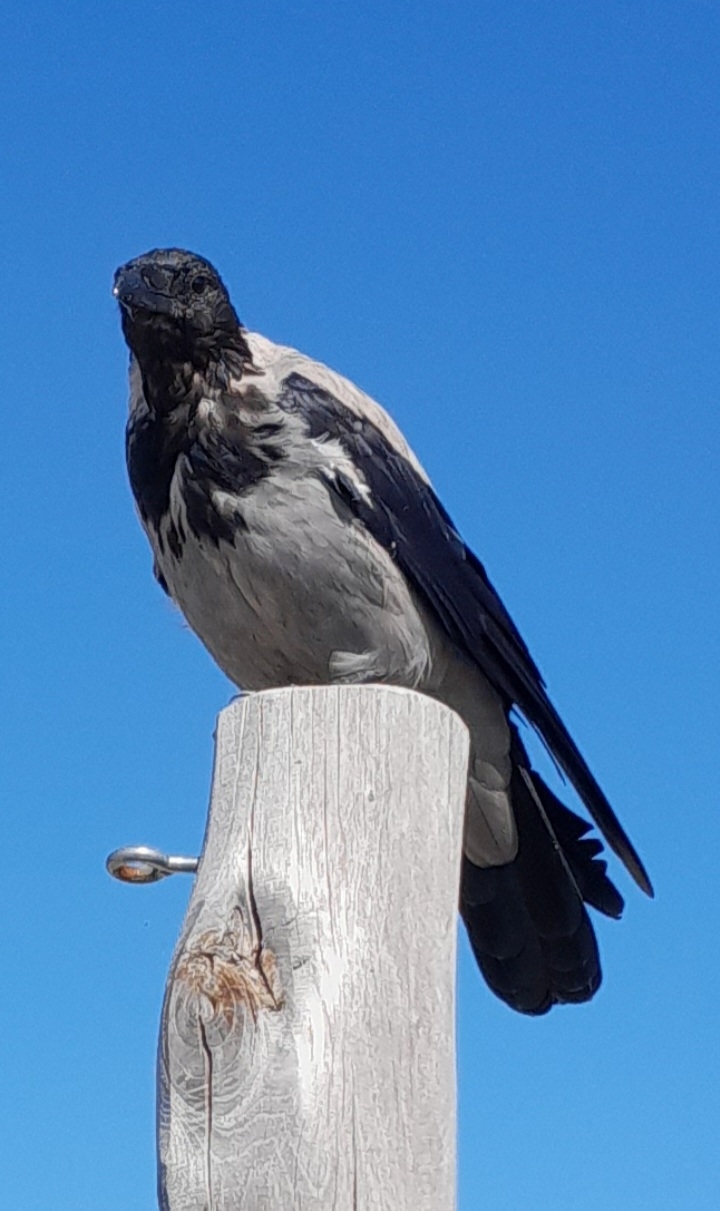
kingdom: Animalia
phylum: Chordata
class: Aves
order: Passeriformes
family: Corvidae
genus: Corvus
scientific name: Corvus cornix
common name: Gråkrage
